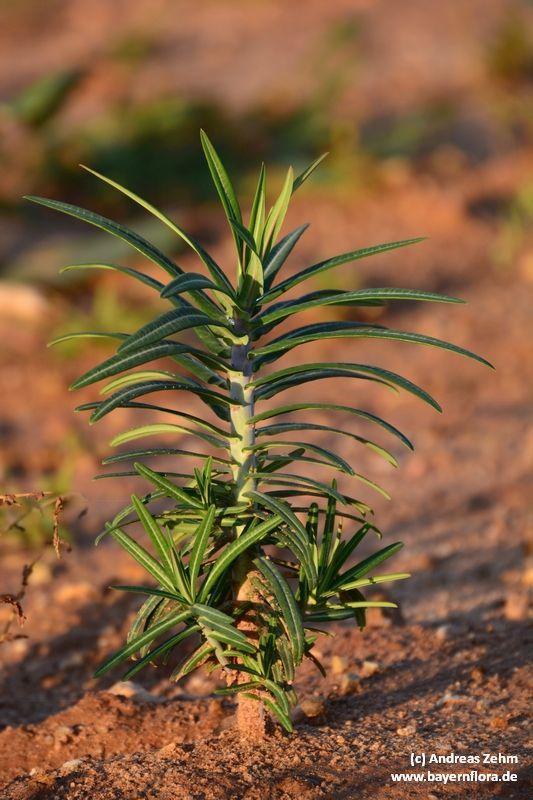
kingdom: Plantae
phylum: Tracheophyta
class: Magnoliopsida
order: Malpighiales
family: Euphorbiaceae
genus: Euphorbia
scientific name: Euphorbia lathyris
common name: Caper spurge
